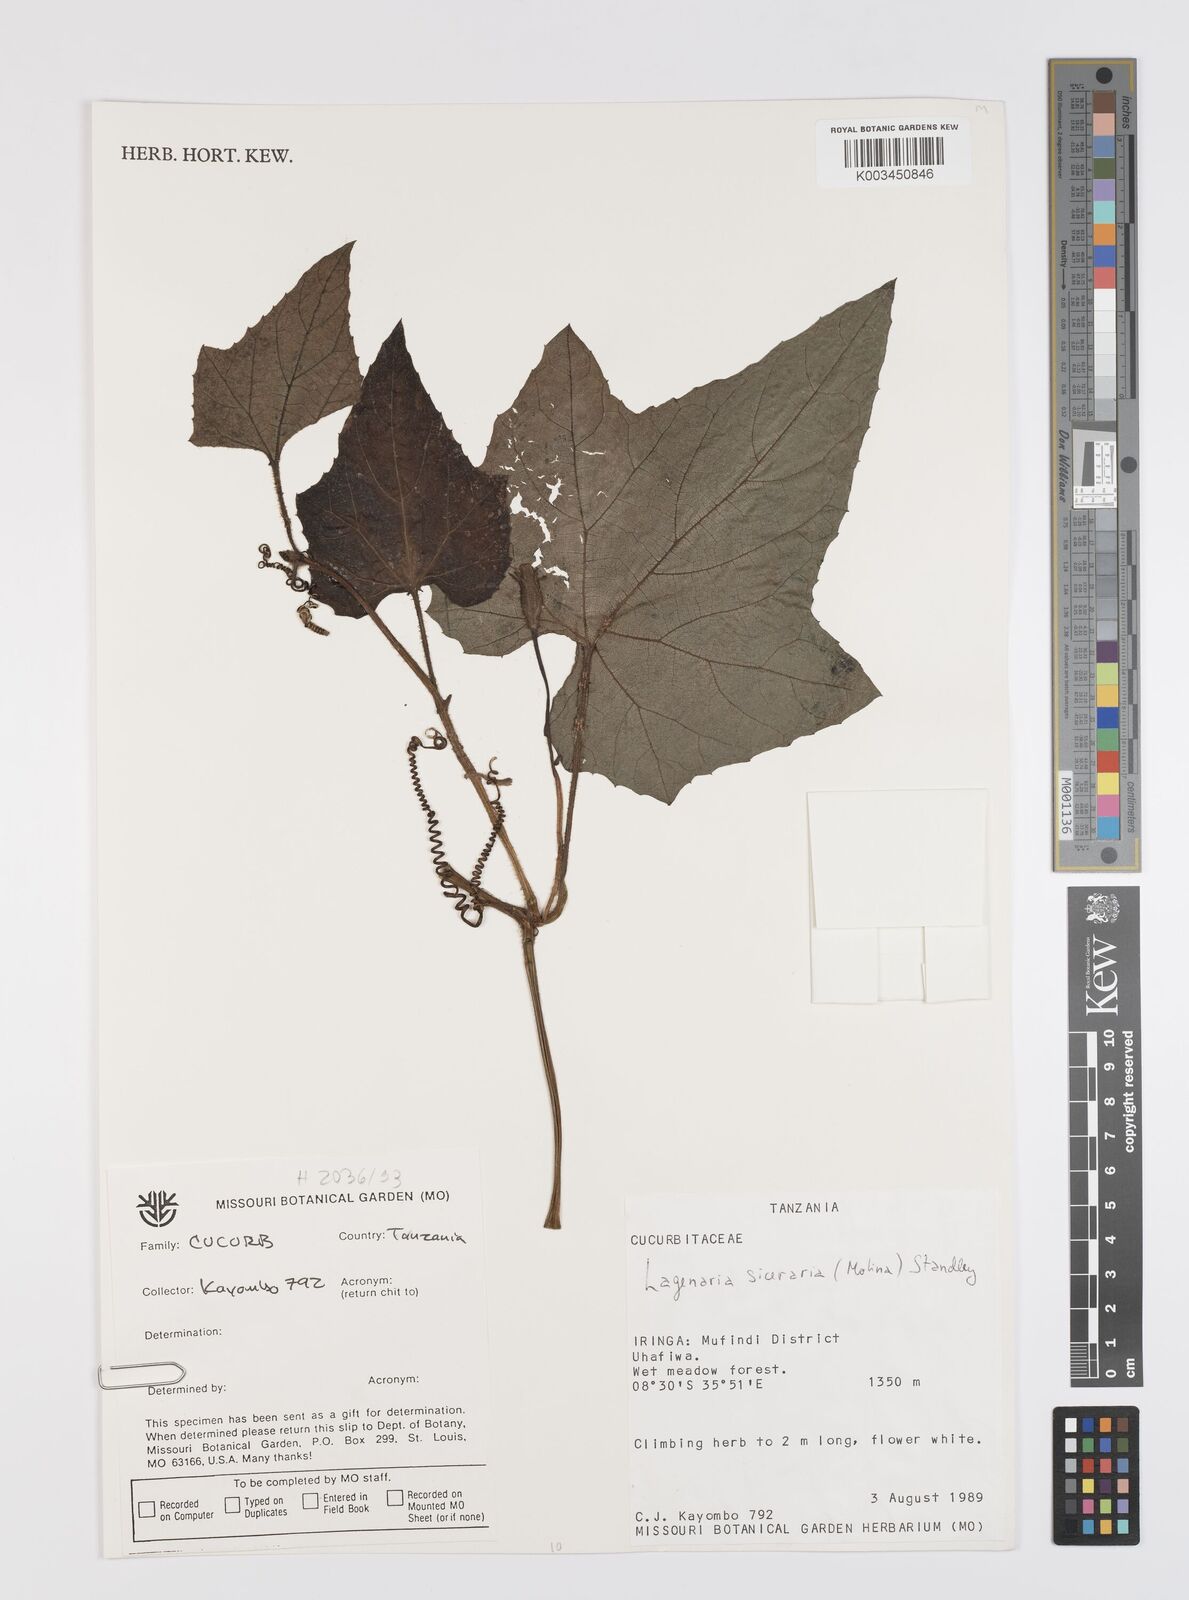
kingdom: Plantae
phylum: Tracheophyta
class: Magnoliopsida
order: Cucurbitales
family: Cucurbitaceae
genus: Lagenaria
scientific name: Lagenaria siceraria
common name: Bottle gourd
